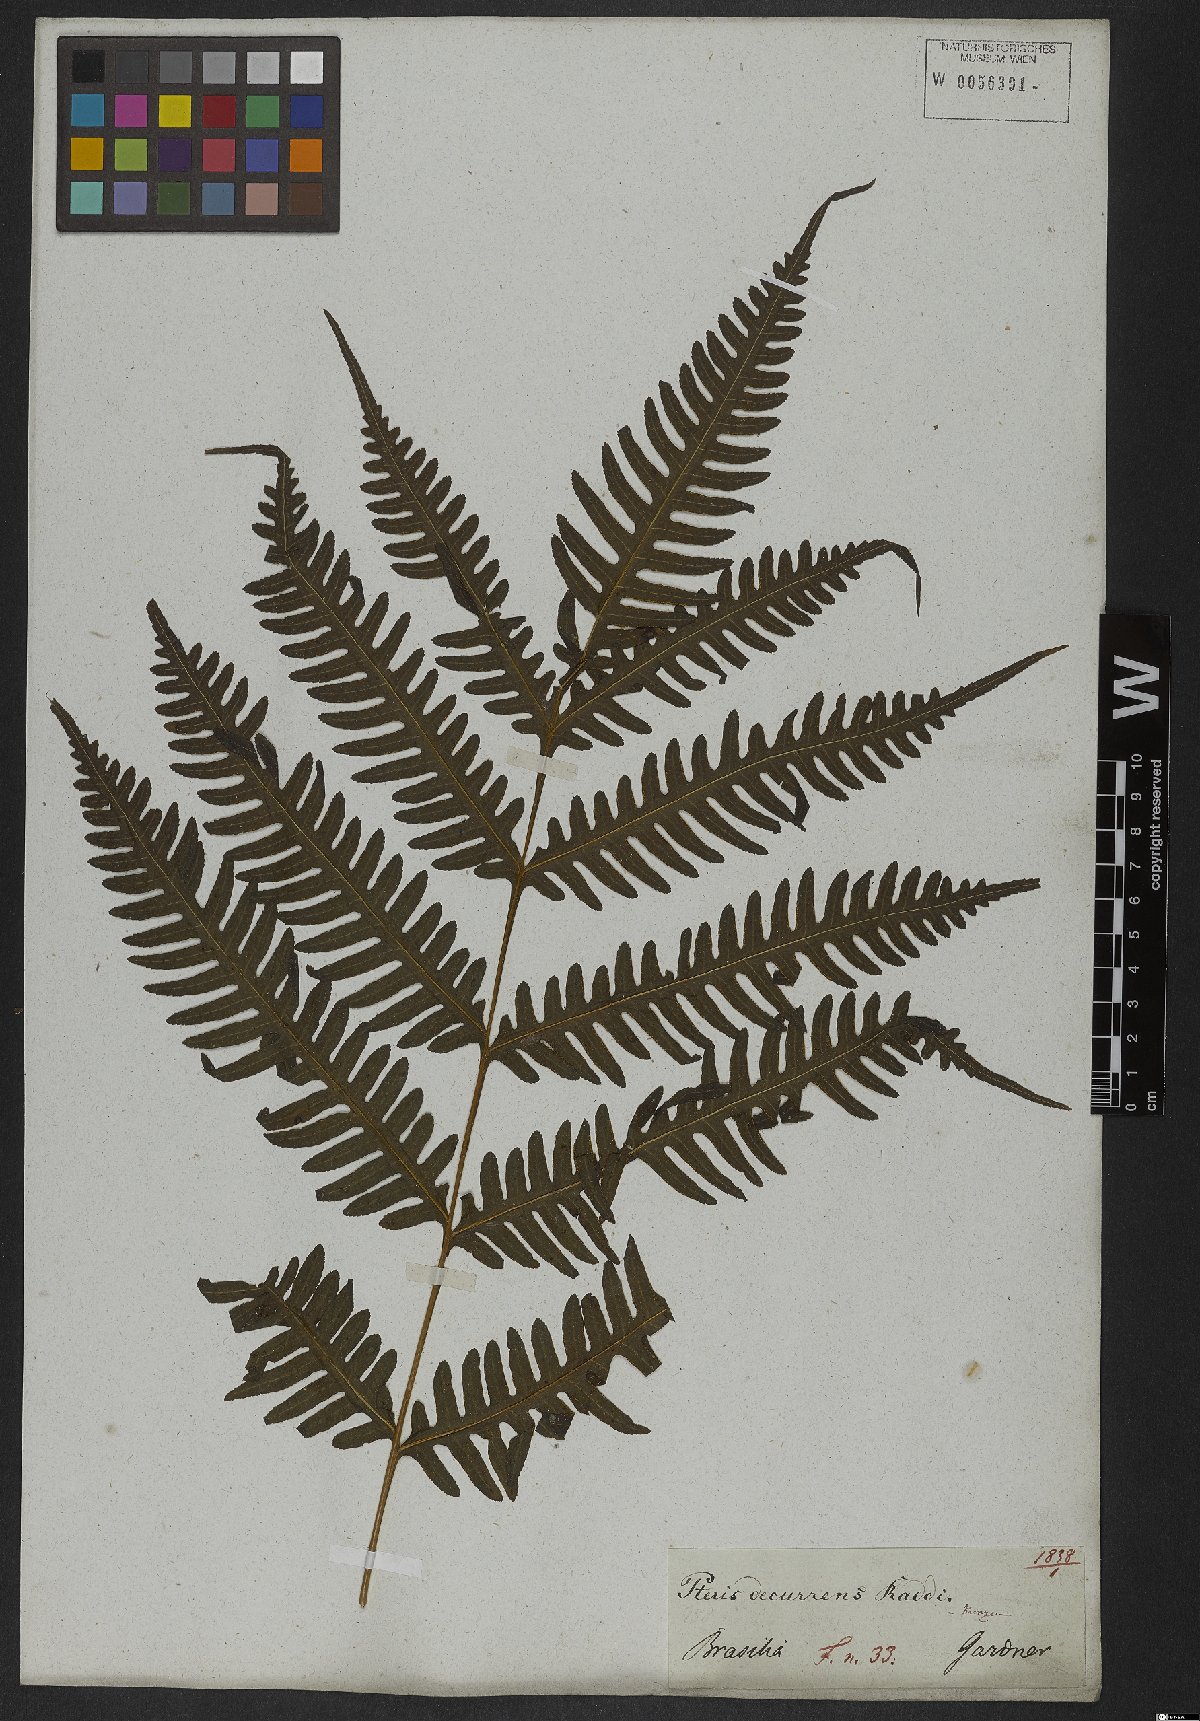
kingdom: Plantae
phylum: Tracheophyta
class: Polypodiopsida
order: Polypodiales
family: Pteridaceae
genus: Pteris
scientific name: Pteris decurrens
